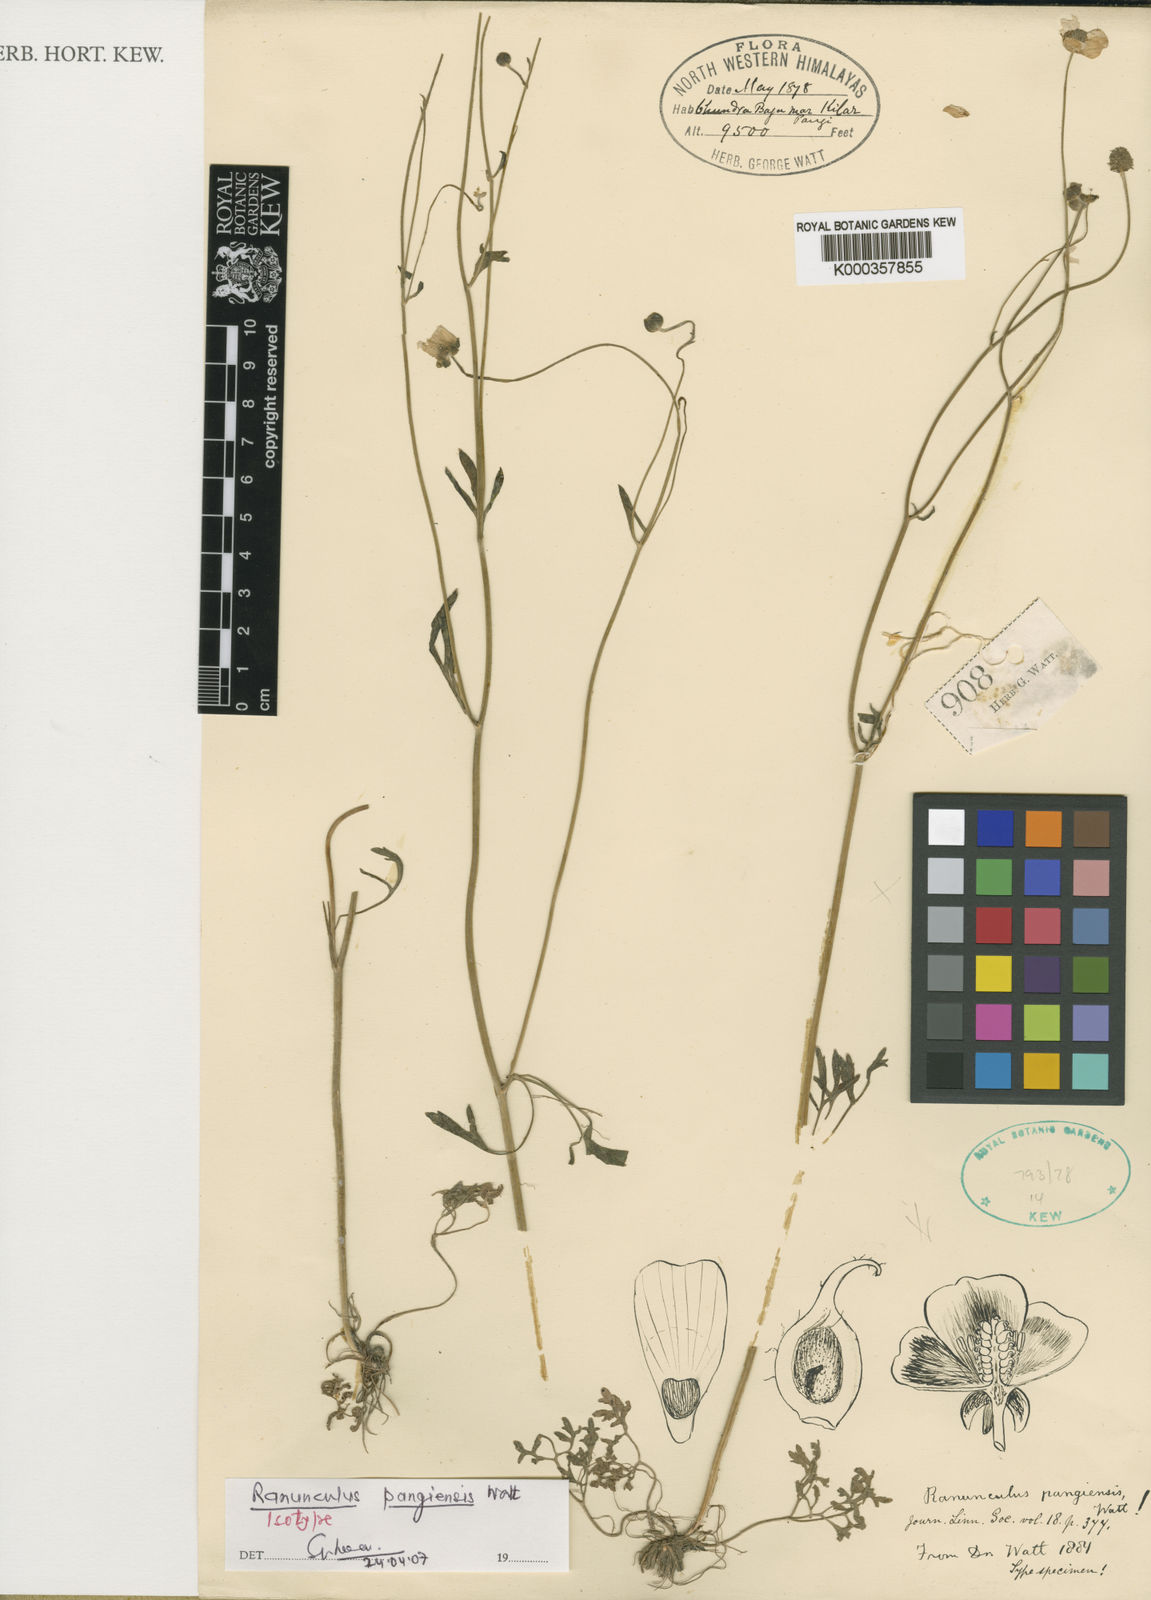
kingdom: Plantae
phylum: Tracheophyta
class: Magnoliopsida
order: Ranunculales
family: Ranunculaceae
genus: Ranunculus
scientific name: Ranunculus pangiensis
